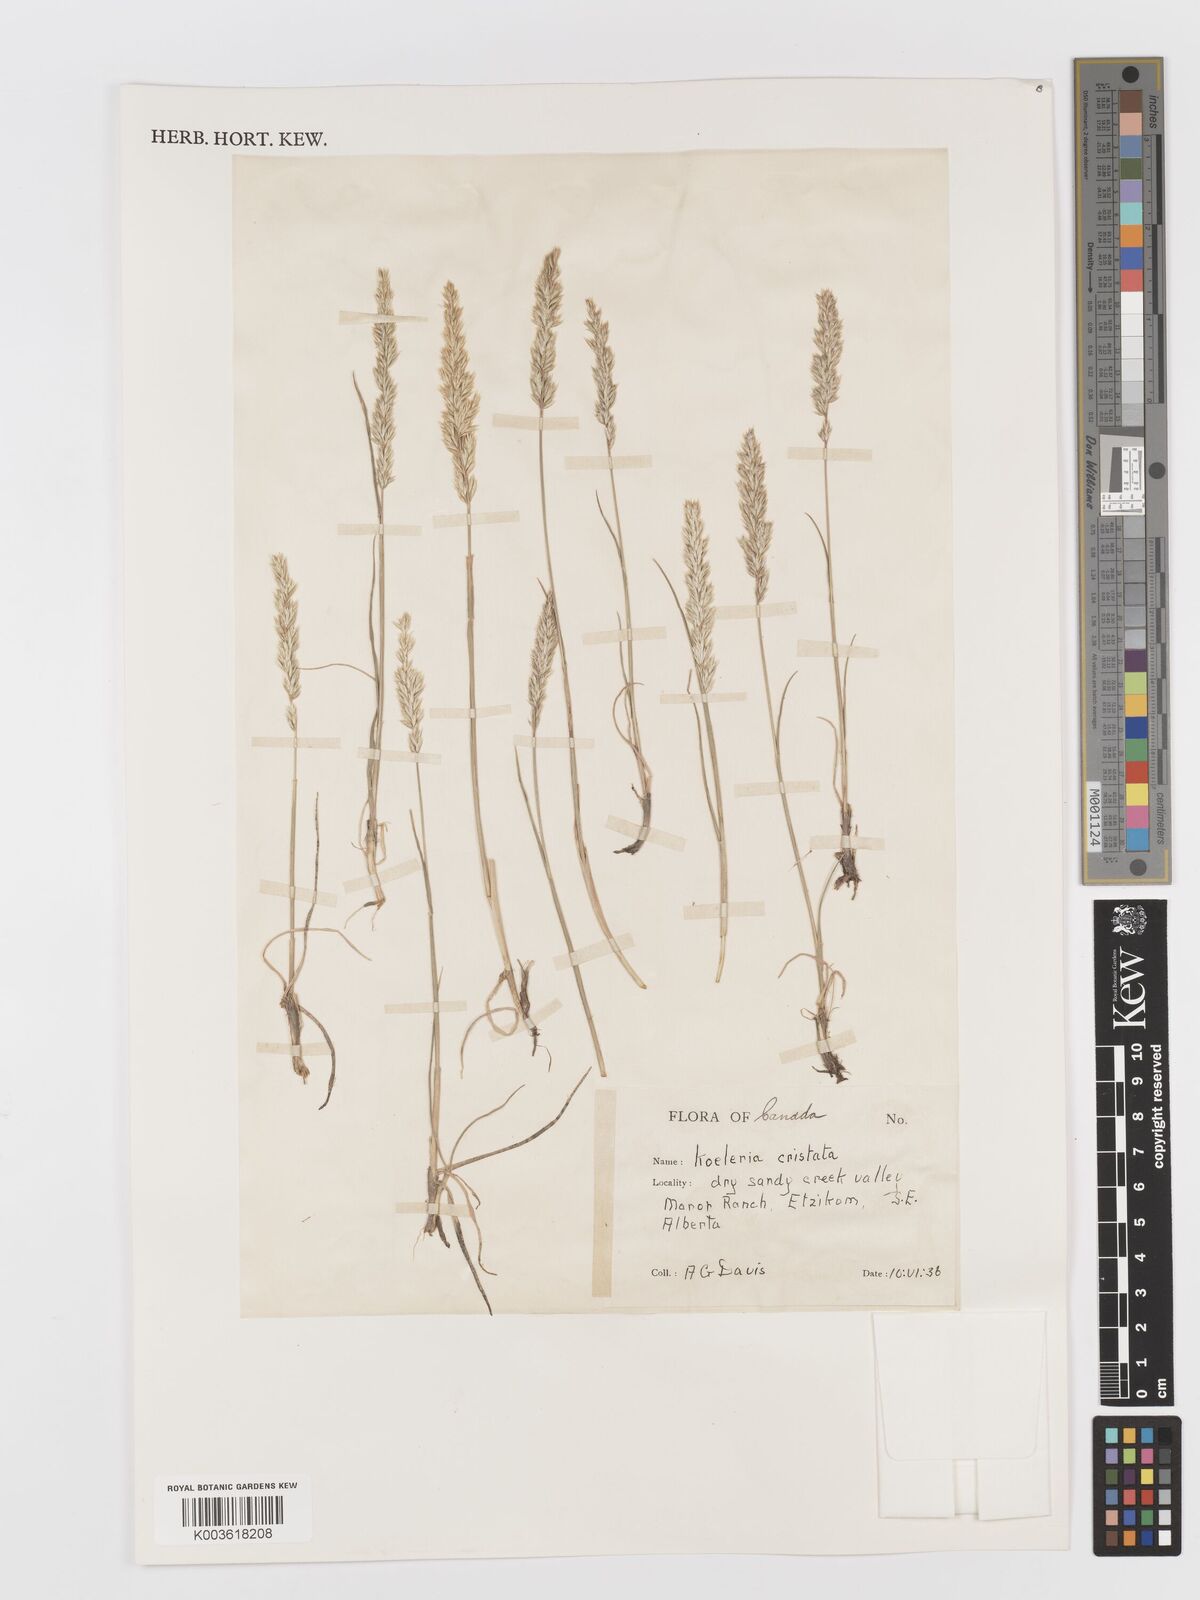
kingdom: Plantae
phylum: Tracheophyta
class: Liliopsida
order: Poales
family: Poaceae
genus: Koeleria
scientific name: Koeleria
